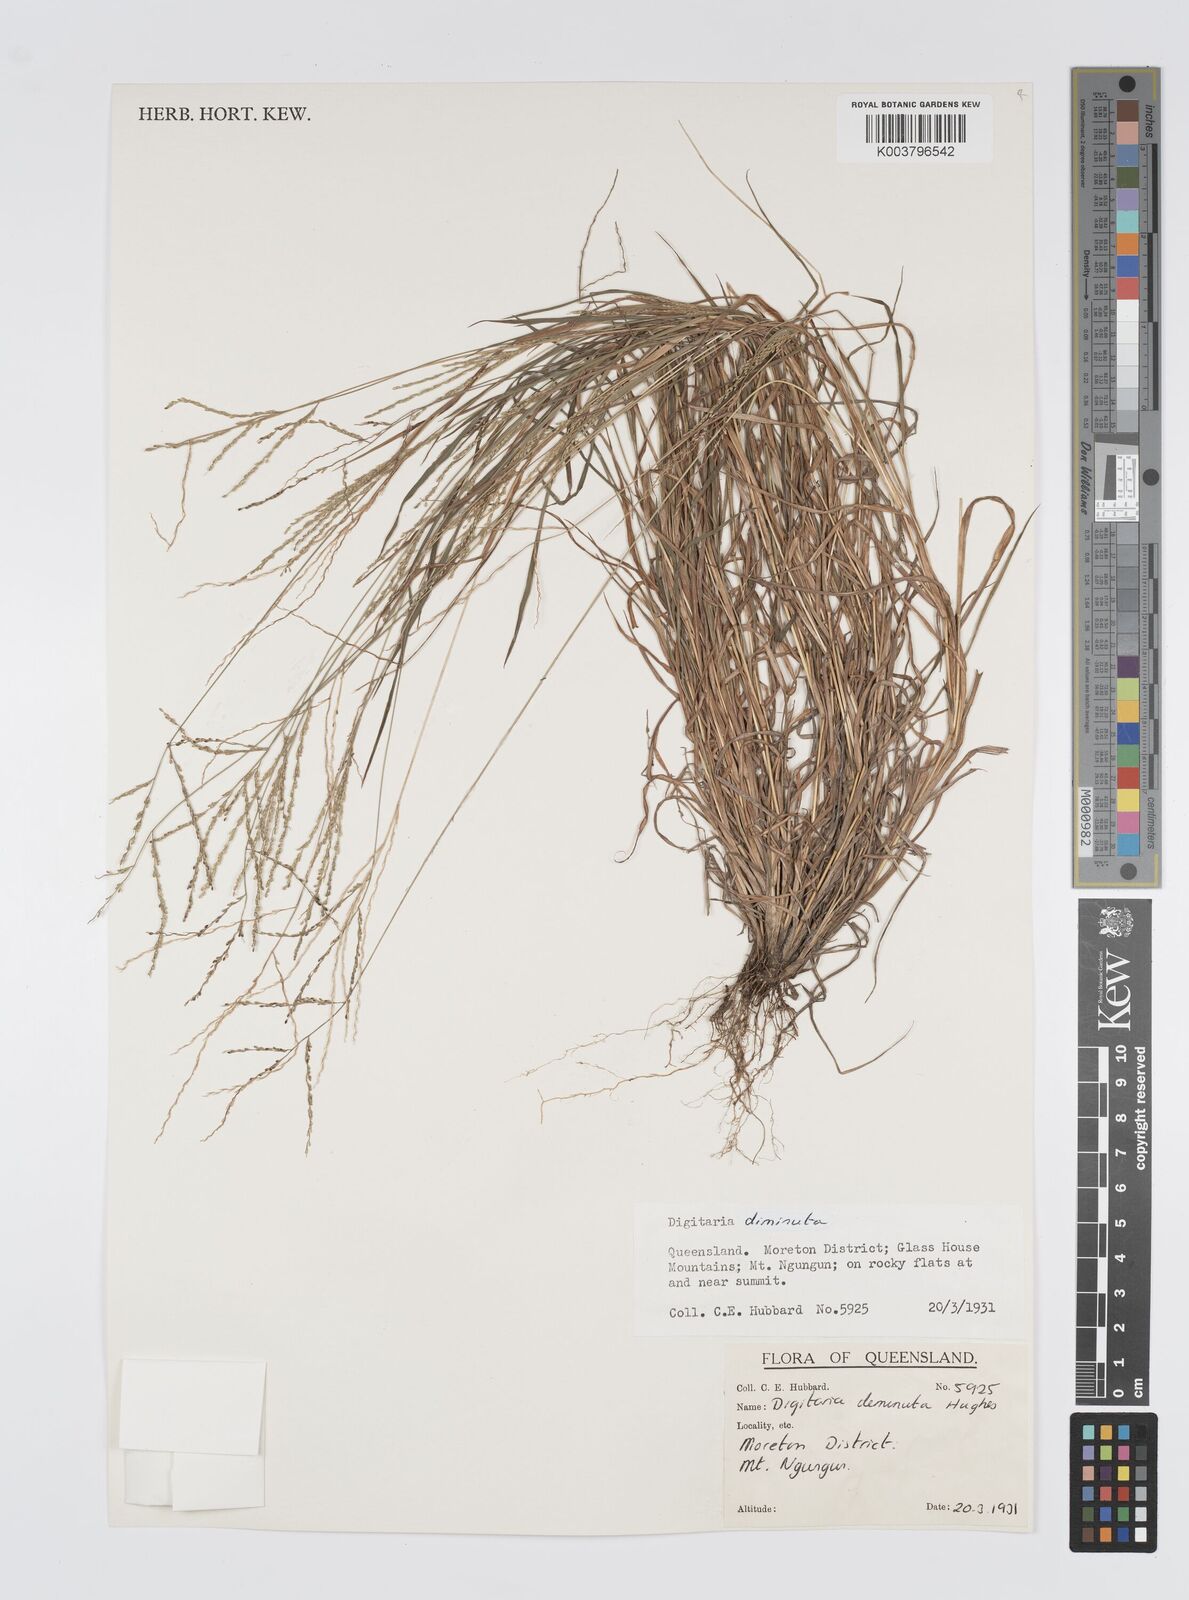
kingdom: Plantae
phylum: Tracheophyta
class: Liliopsida
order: Poales
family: Poaceae
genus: Digitaria
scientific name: Digitaria breviglumis
